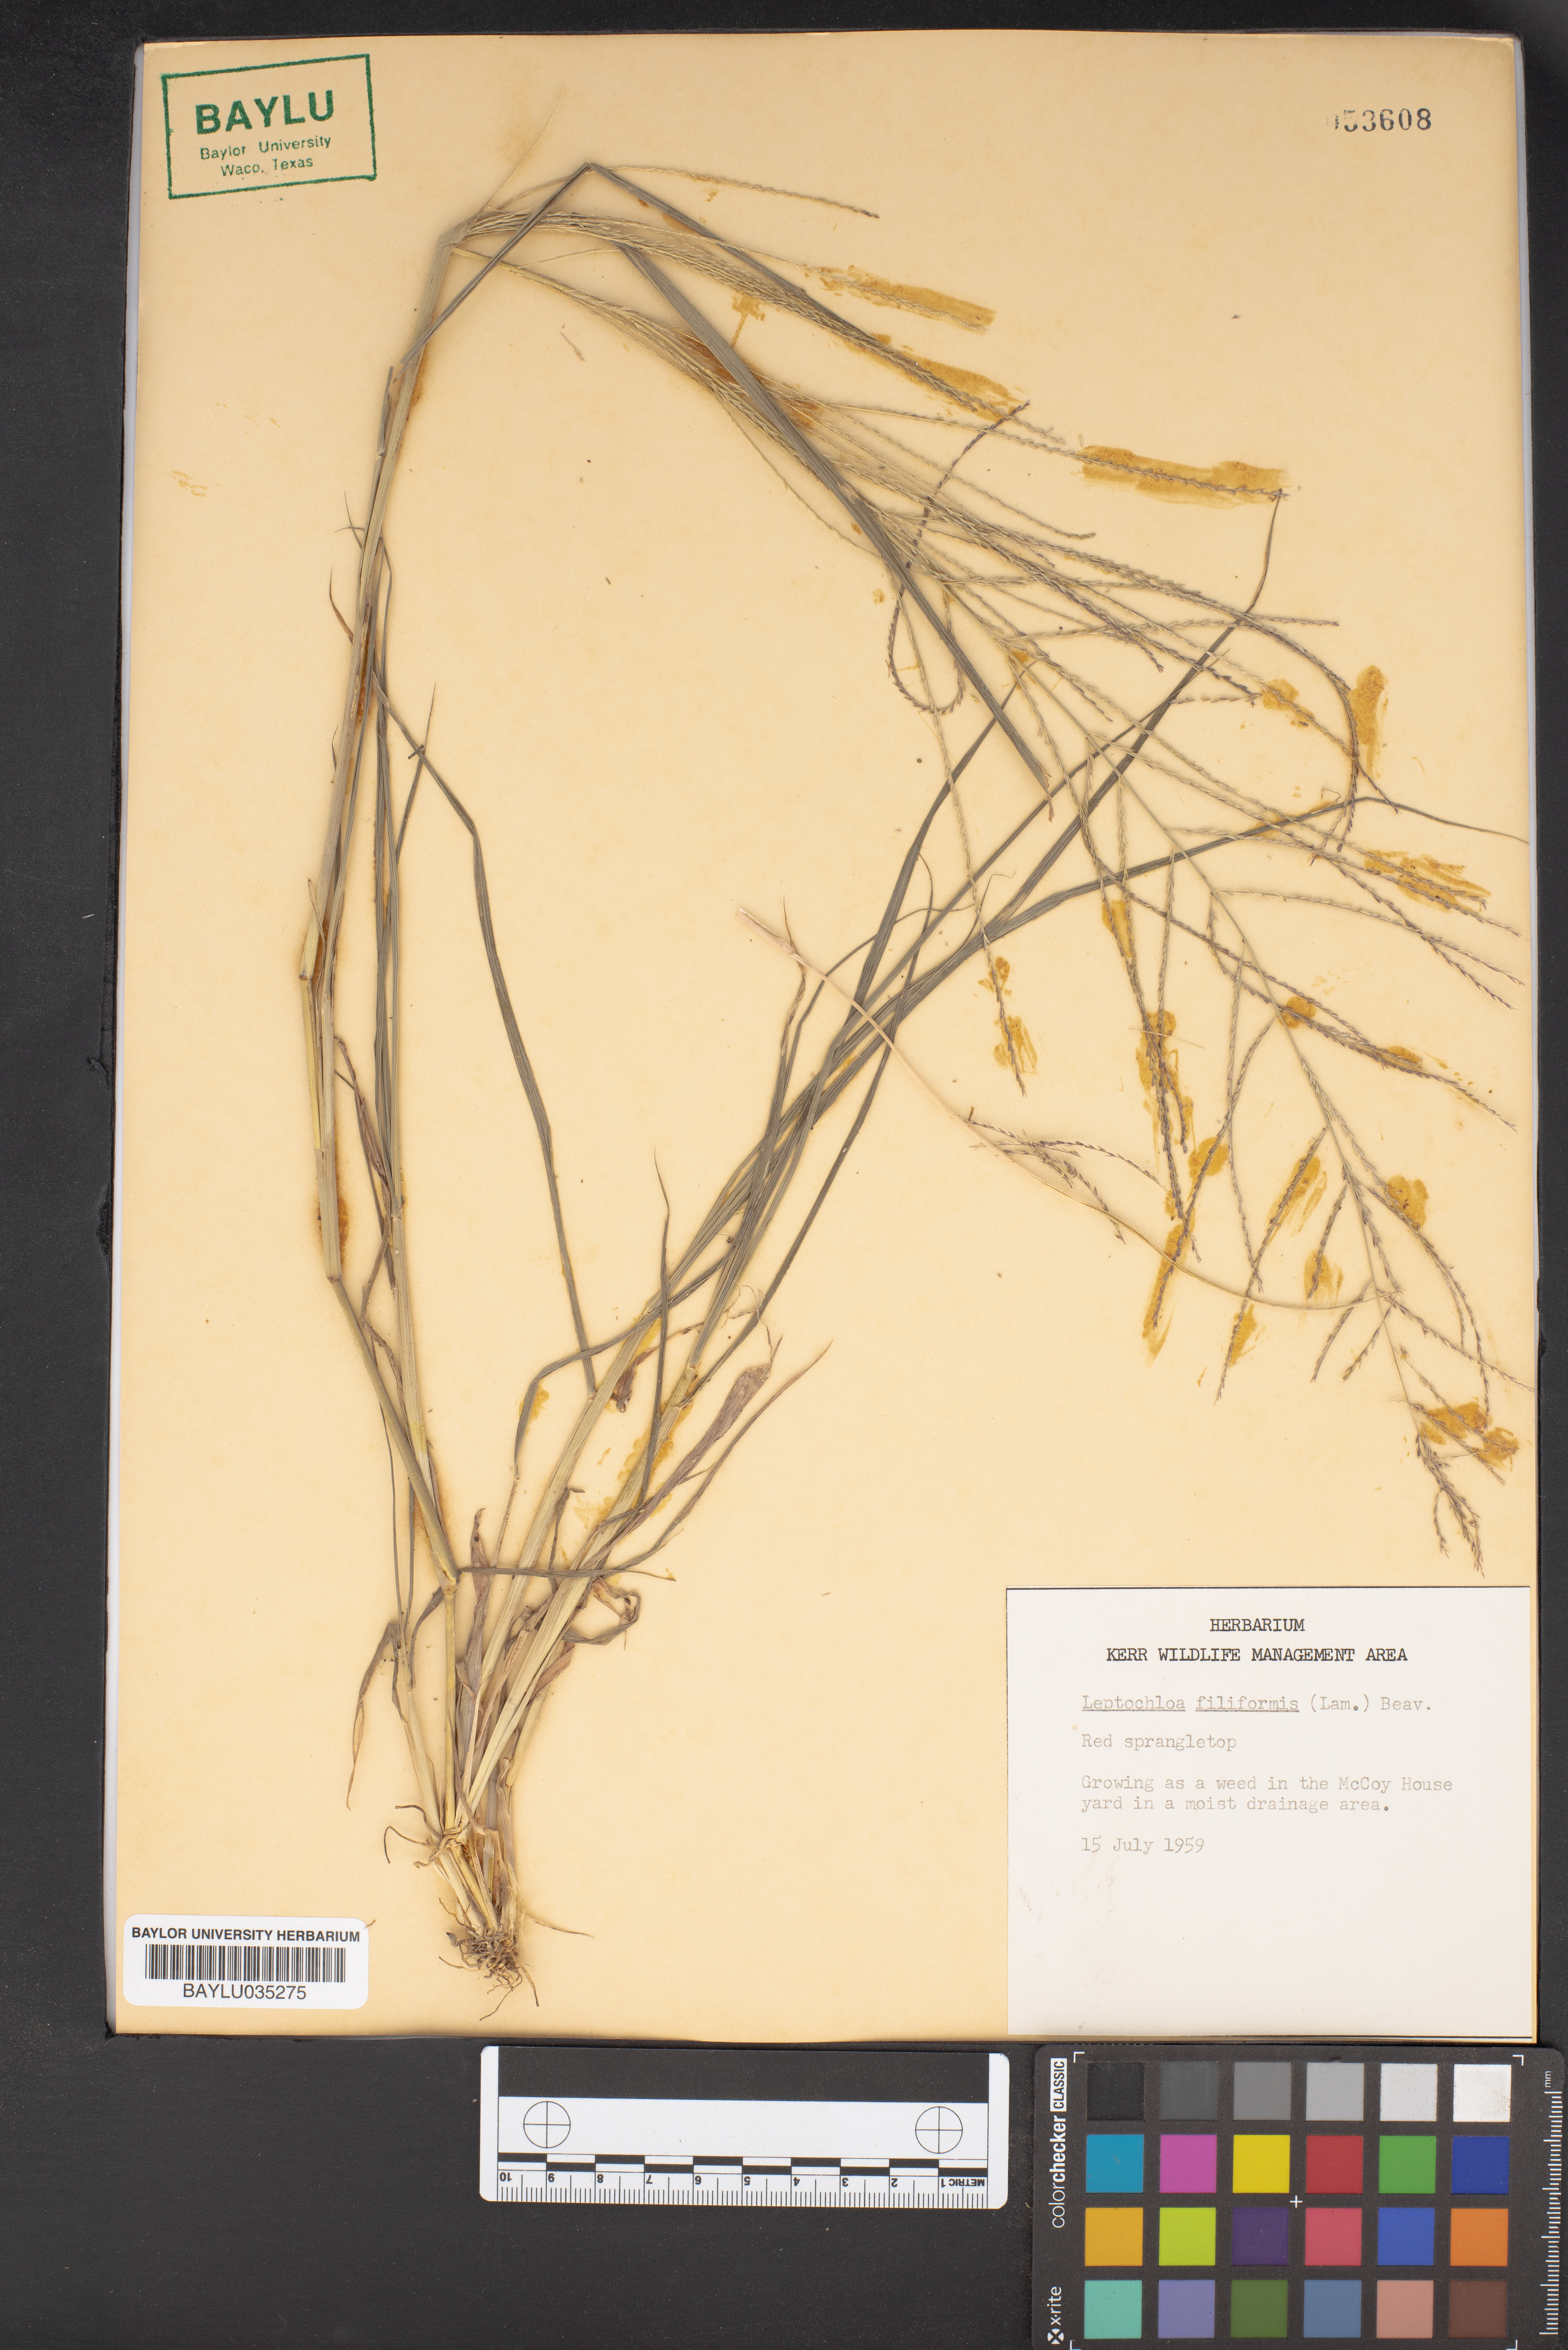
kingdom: Plantae
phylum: Tracheophyta
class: Liliopsida
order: Poales
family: Poaceae
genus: Leptochloa
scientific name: Leptochloa mucronata
